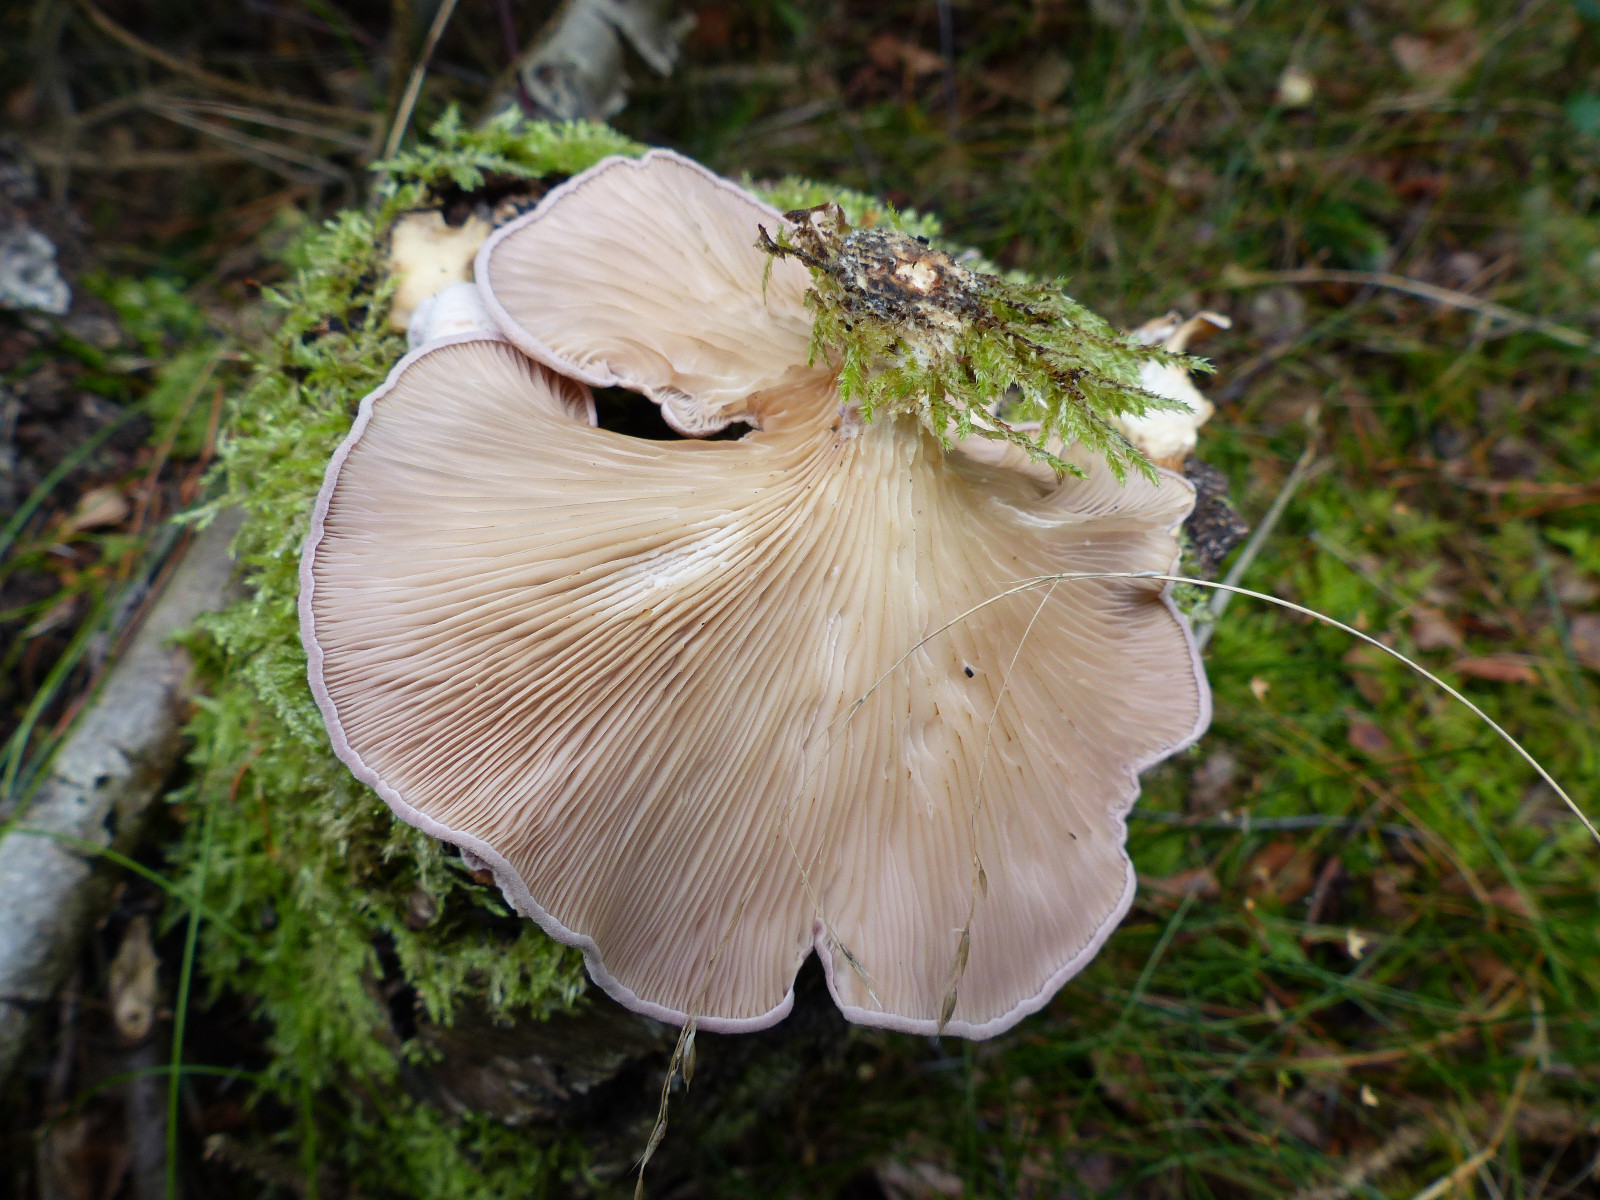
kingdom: Fungi
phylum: Basidiomycota
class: Agaricomycetes
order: Polyporales
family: Panaceae
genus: Panus
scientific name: Panus conchatus
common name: filtstokket læderhat
